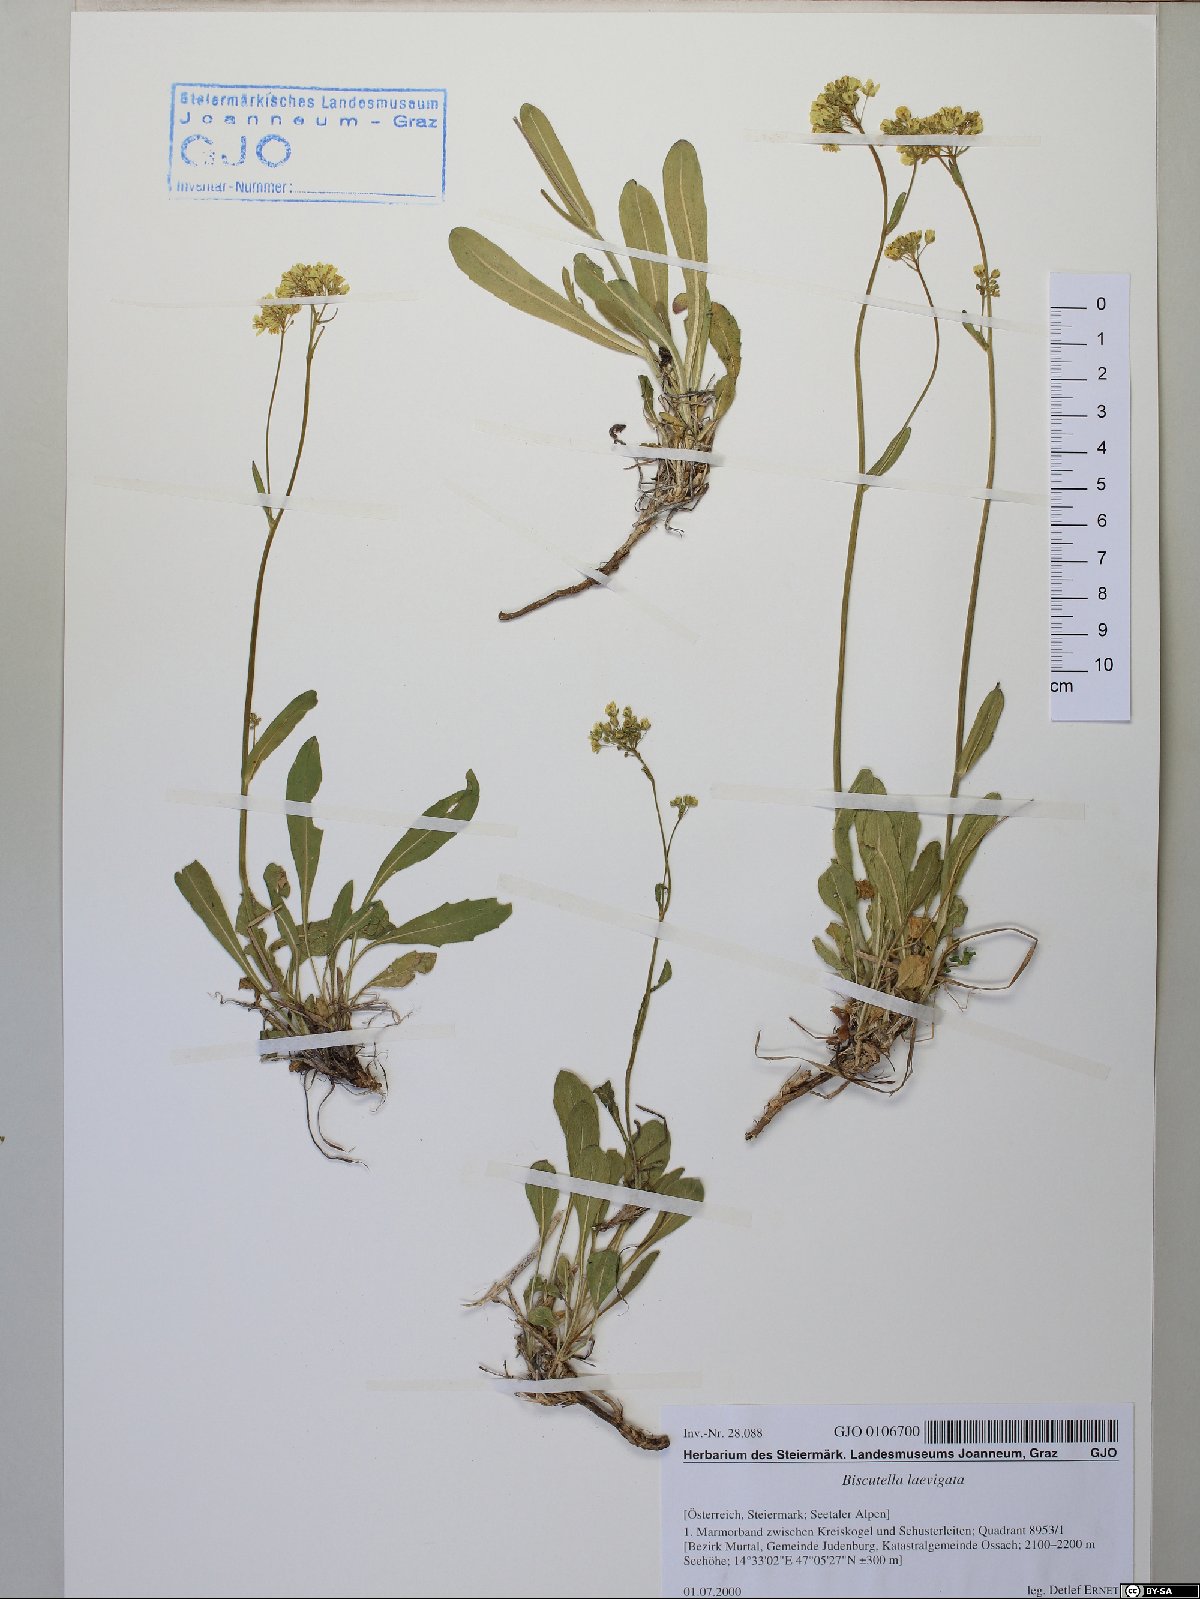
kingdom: Plantae
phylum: Tracheophyta
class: Magnoliopsida
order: Brassicales
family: Brassicaceae
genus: Biscutella
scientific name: Biscutella laevigata
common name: Buckler mustard
